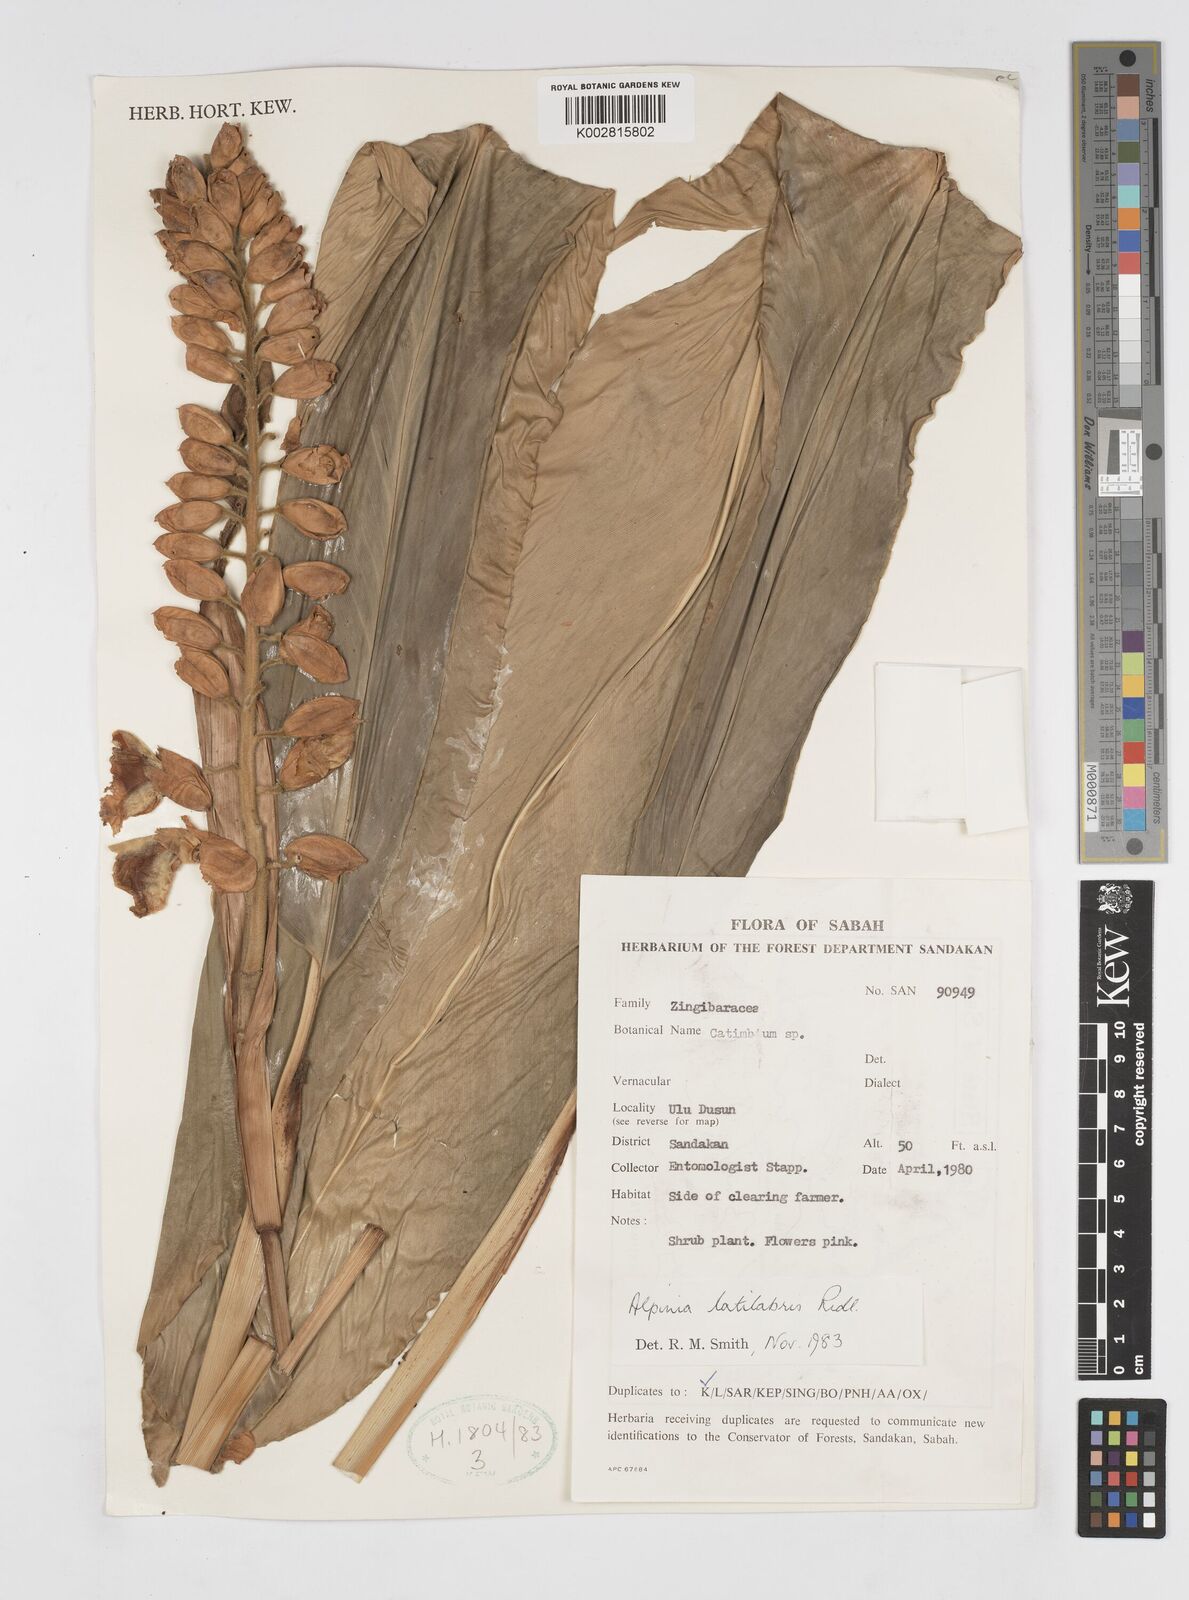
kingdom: Plantae
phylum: Tracheophyta
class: Liliopsida
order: Zingiberales
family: Zingiberaceae
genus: Alpinia
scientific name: Alpinia latilabris
